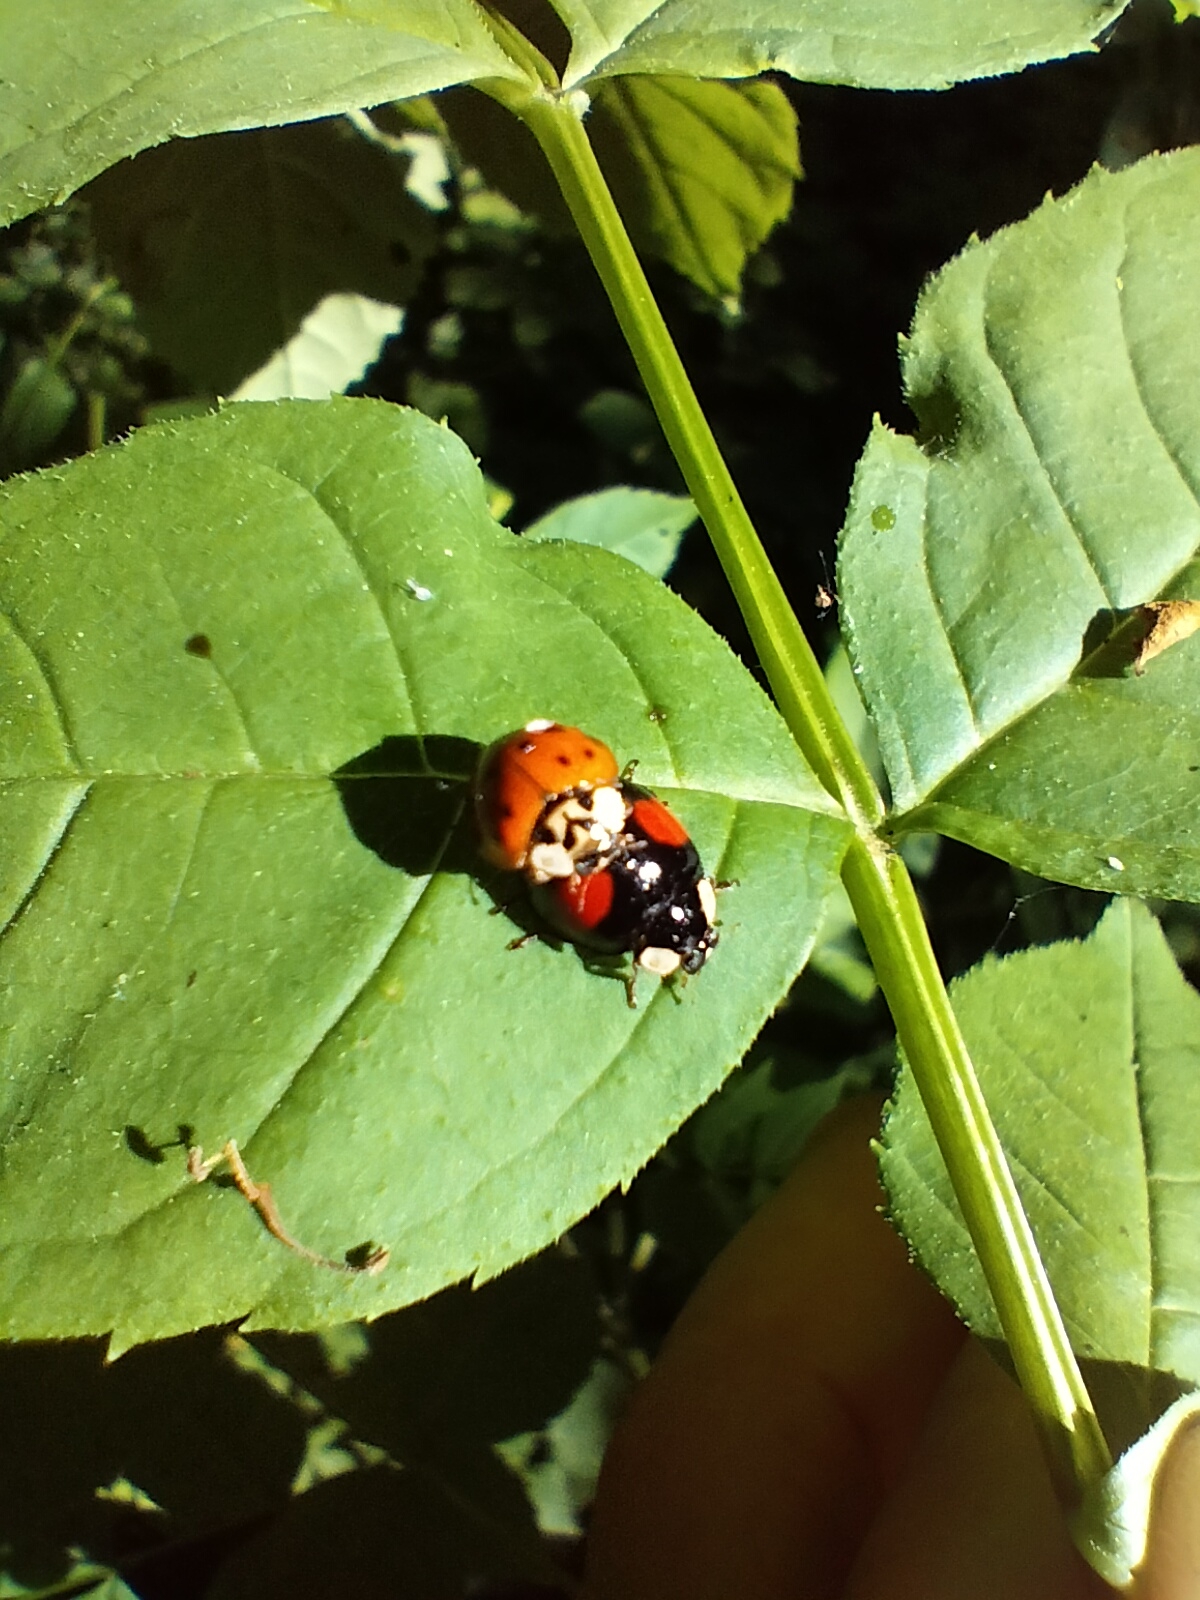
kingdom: Animalia
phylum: Arthropoda
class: Insecta
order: Coleoptera
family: Coccinellidae
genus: Harmonia
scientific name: Harmonia axyridis
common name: Harlekinmariehøne
